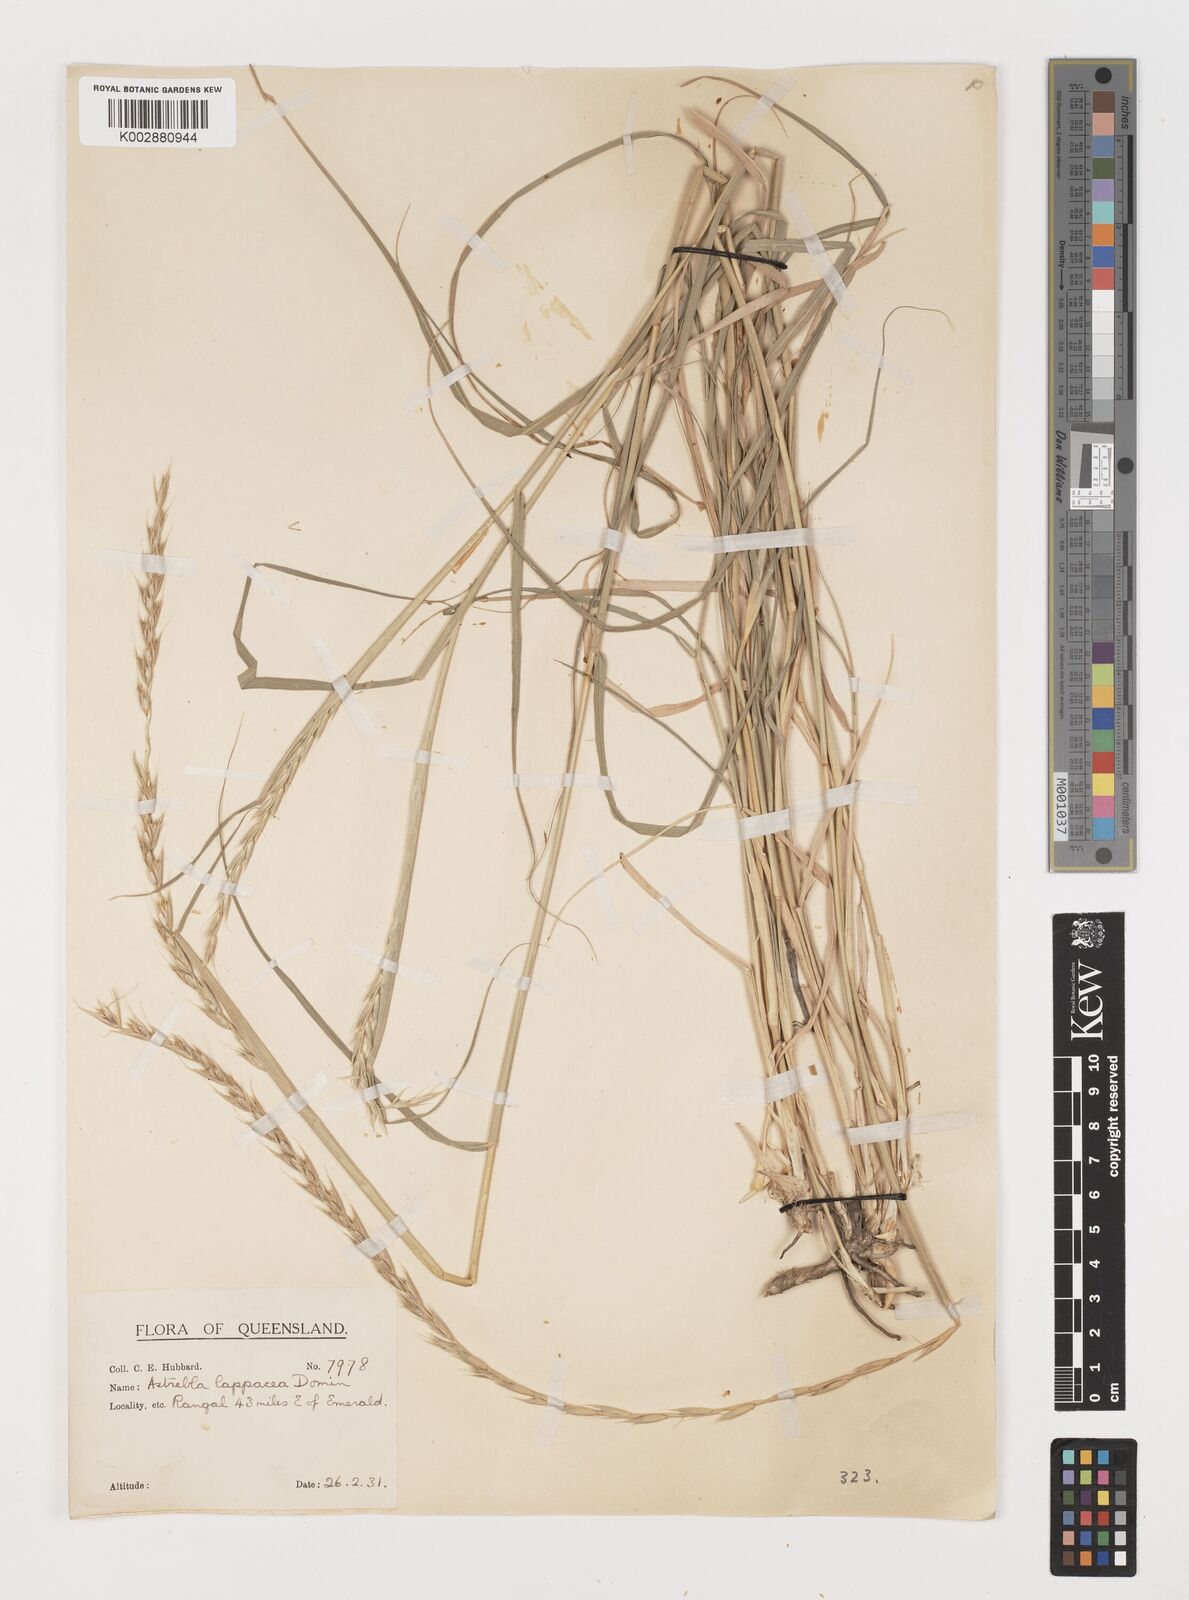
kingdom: Plantae
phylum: Tracheophyta
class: Liliopsida
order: Poales
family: Poaceae
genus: Astrebla
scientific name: Astrebla lappacea
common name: Curly mitchell grass
